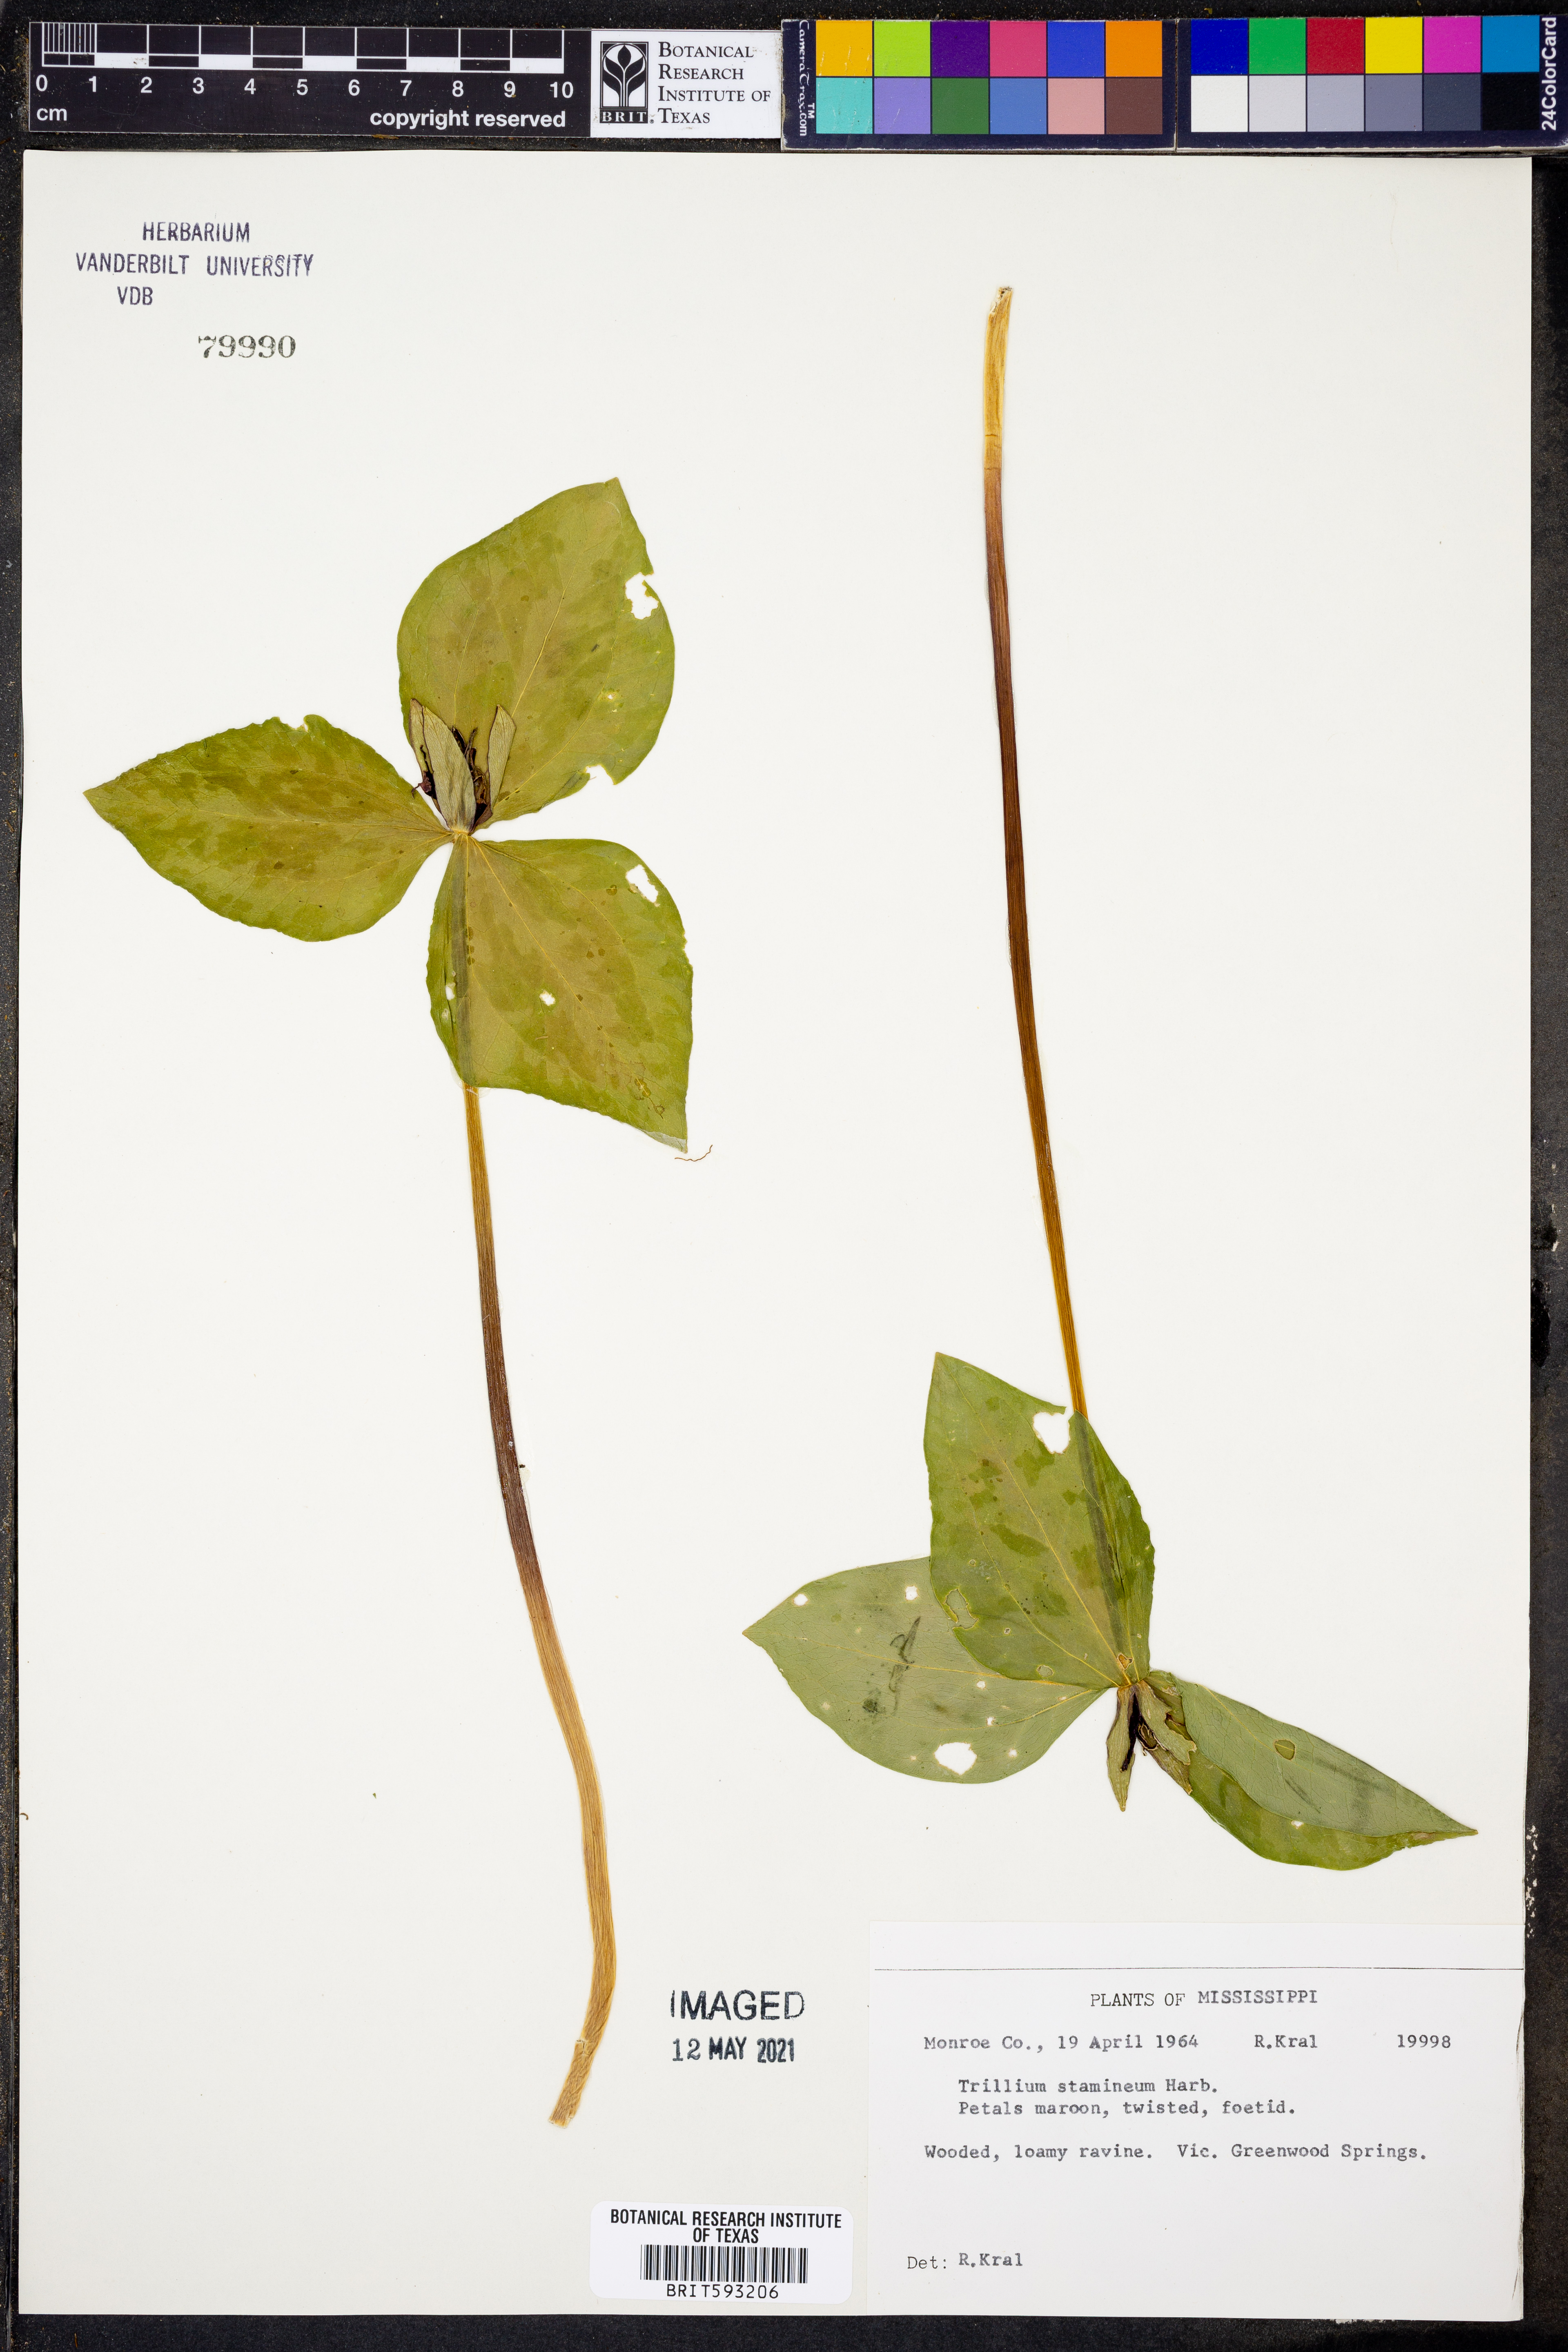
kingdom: Plantae
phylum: Tracheophyta
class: Liliopsida
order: Liliales
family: Melanthiaceae
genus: Trillium
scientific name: Trillium stamineum
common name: Blue ridge wakerobin
